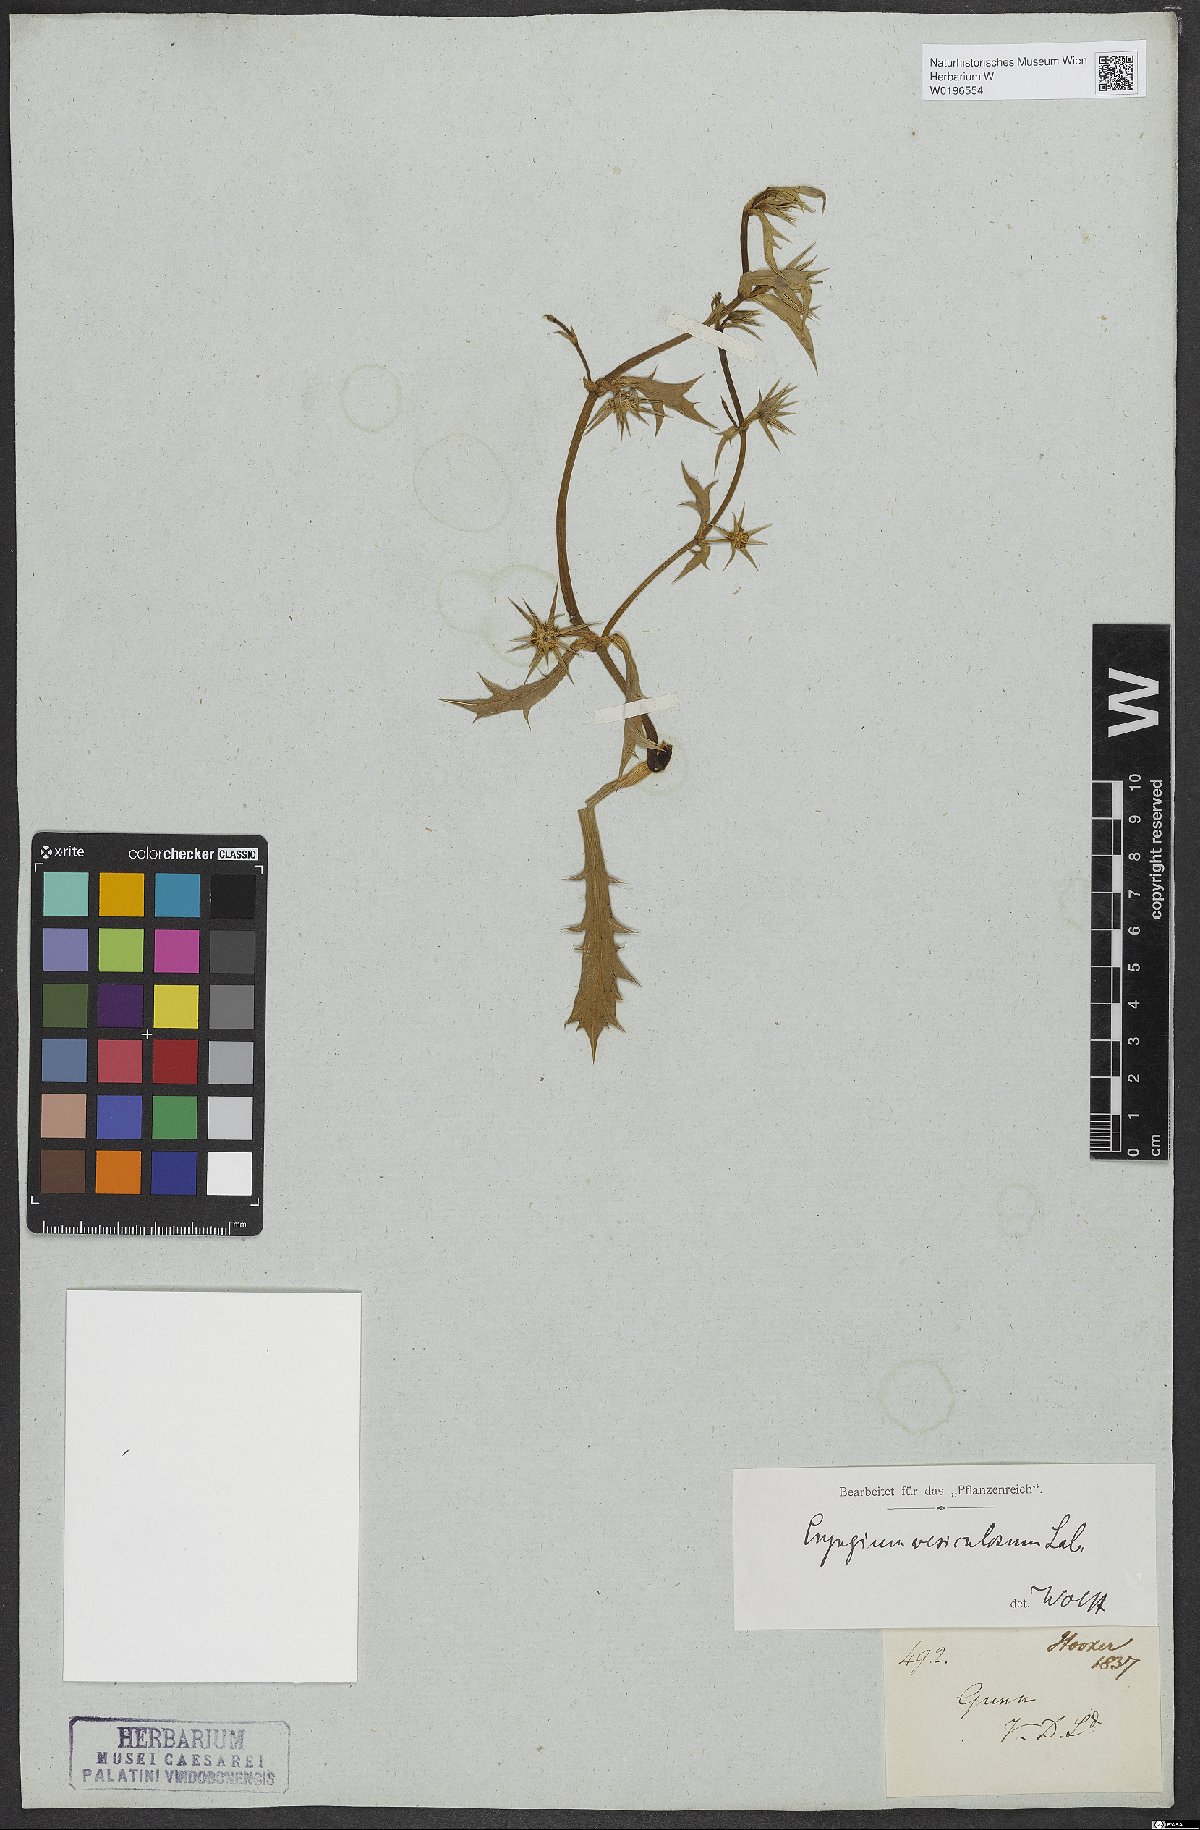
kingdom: Plantae
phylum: Tracheophyta
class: Magnoliopsida
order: Apiales
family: Apiaceae
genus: Eryngium
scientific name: Eryngium vesiculosum
